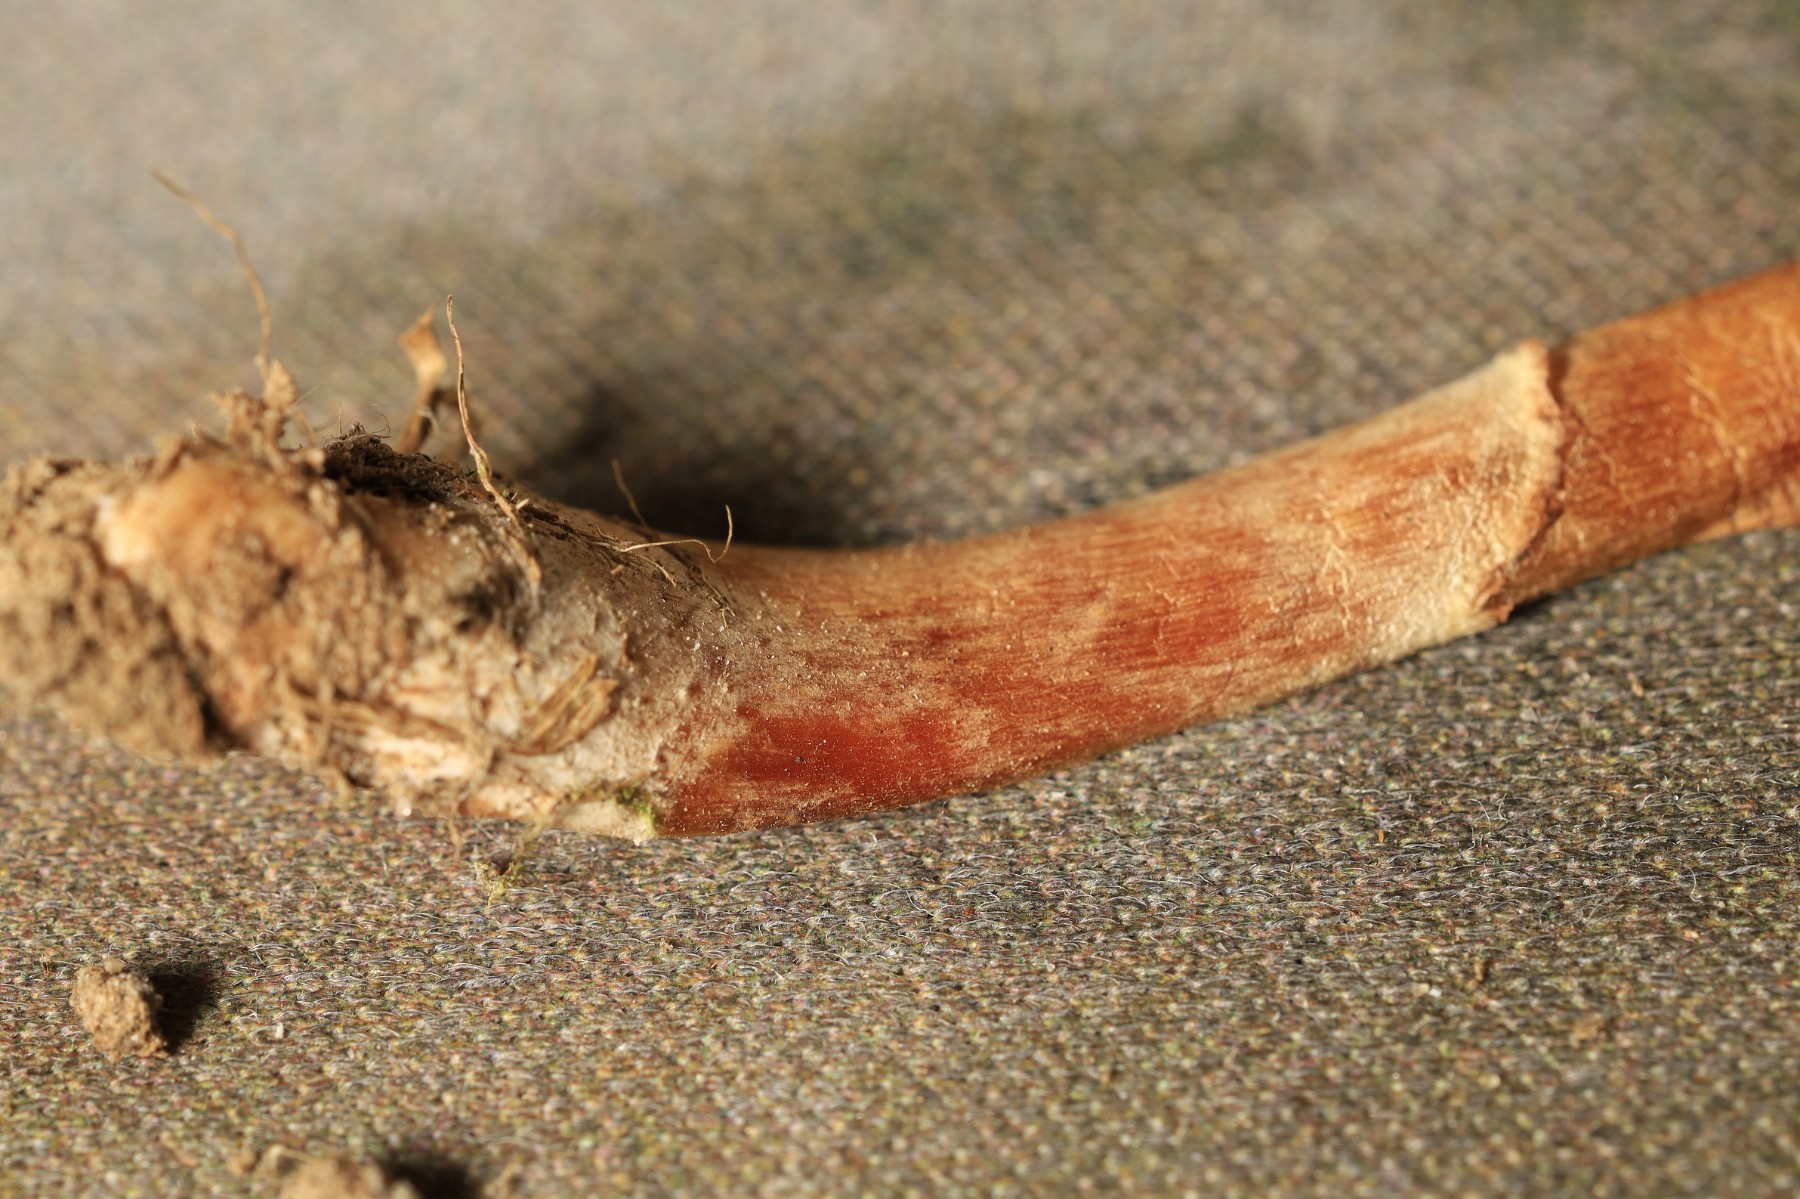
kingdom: Fungi
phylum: Basidiomycota
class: Agaricomycetes
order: Agaricales
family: Cortinariaceae
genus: Cortinarius
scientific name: Cortinarius luridus
